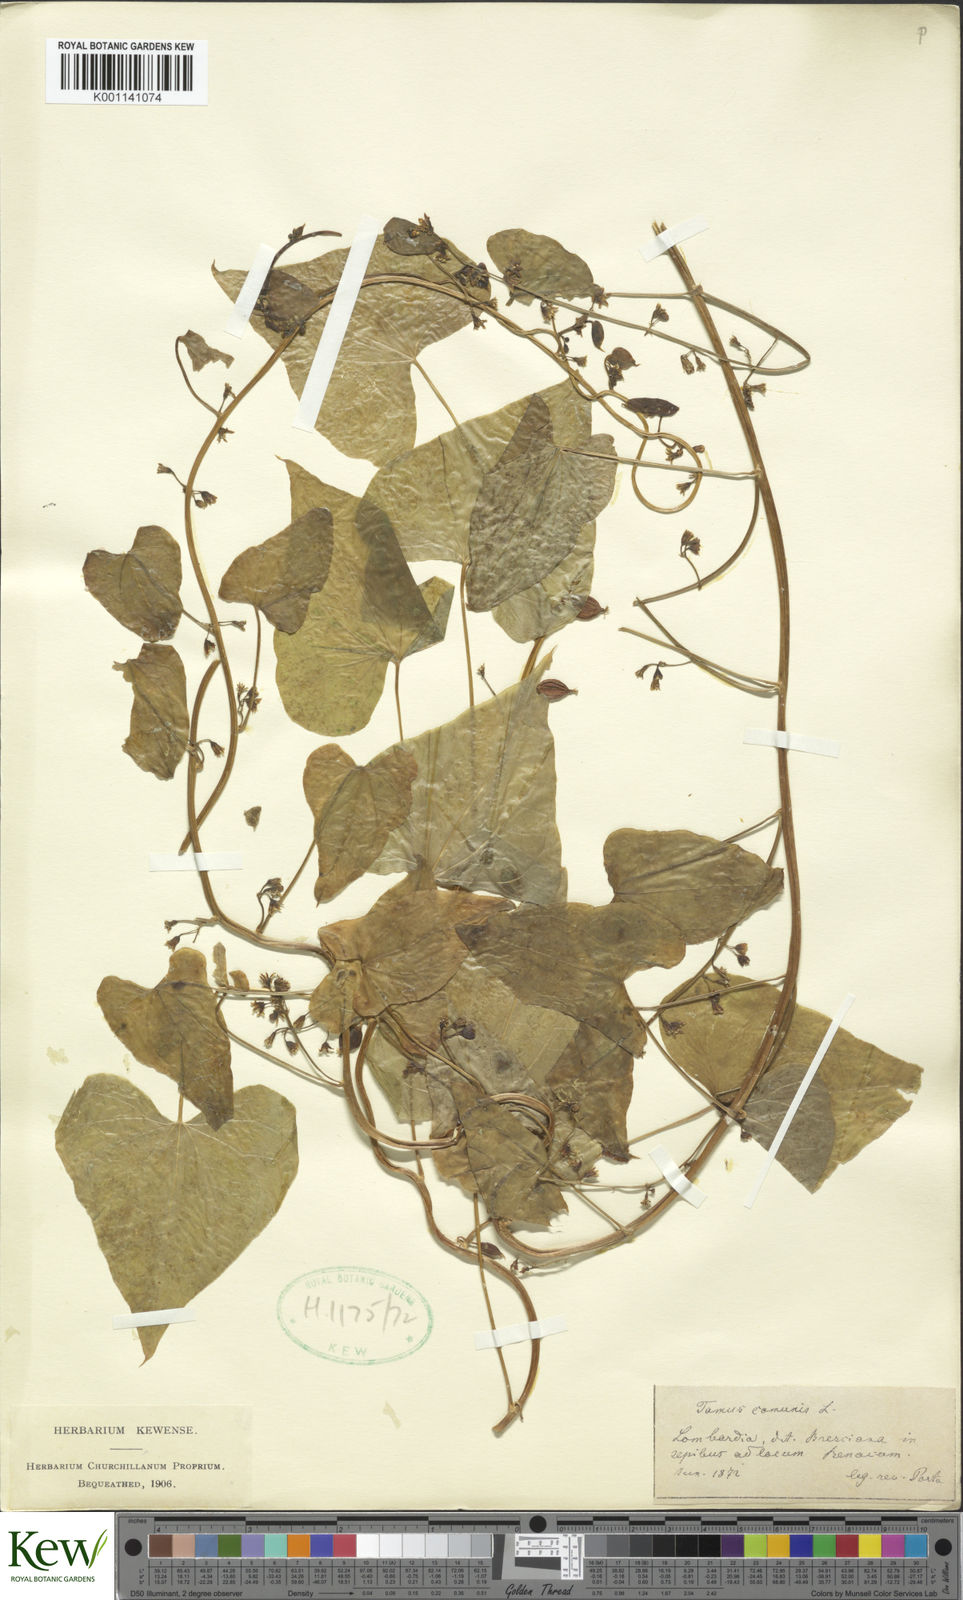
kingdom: Plantae
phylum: Tracheophyta
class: Liliopsida
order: Dioscoreales
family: Dioscoreaceae
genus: Dioscorea
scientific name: Dioscorea communis
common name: Black-bindweed
